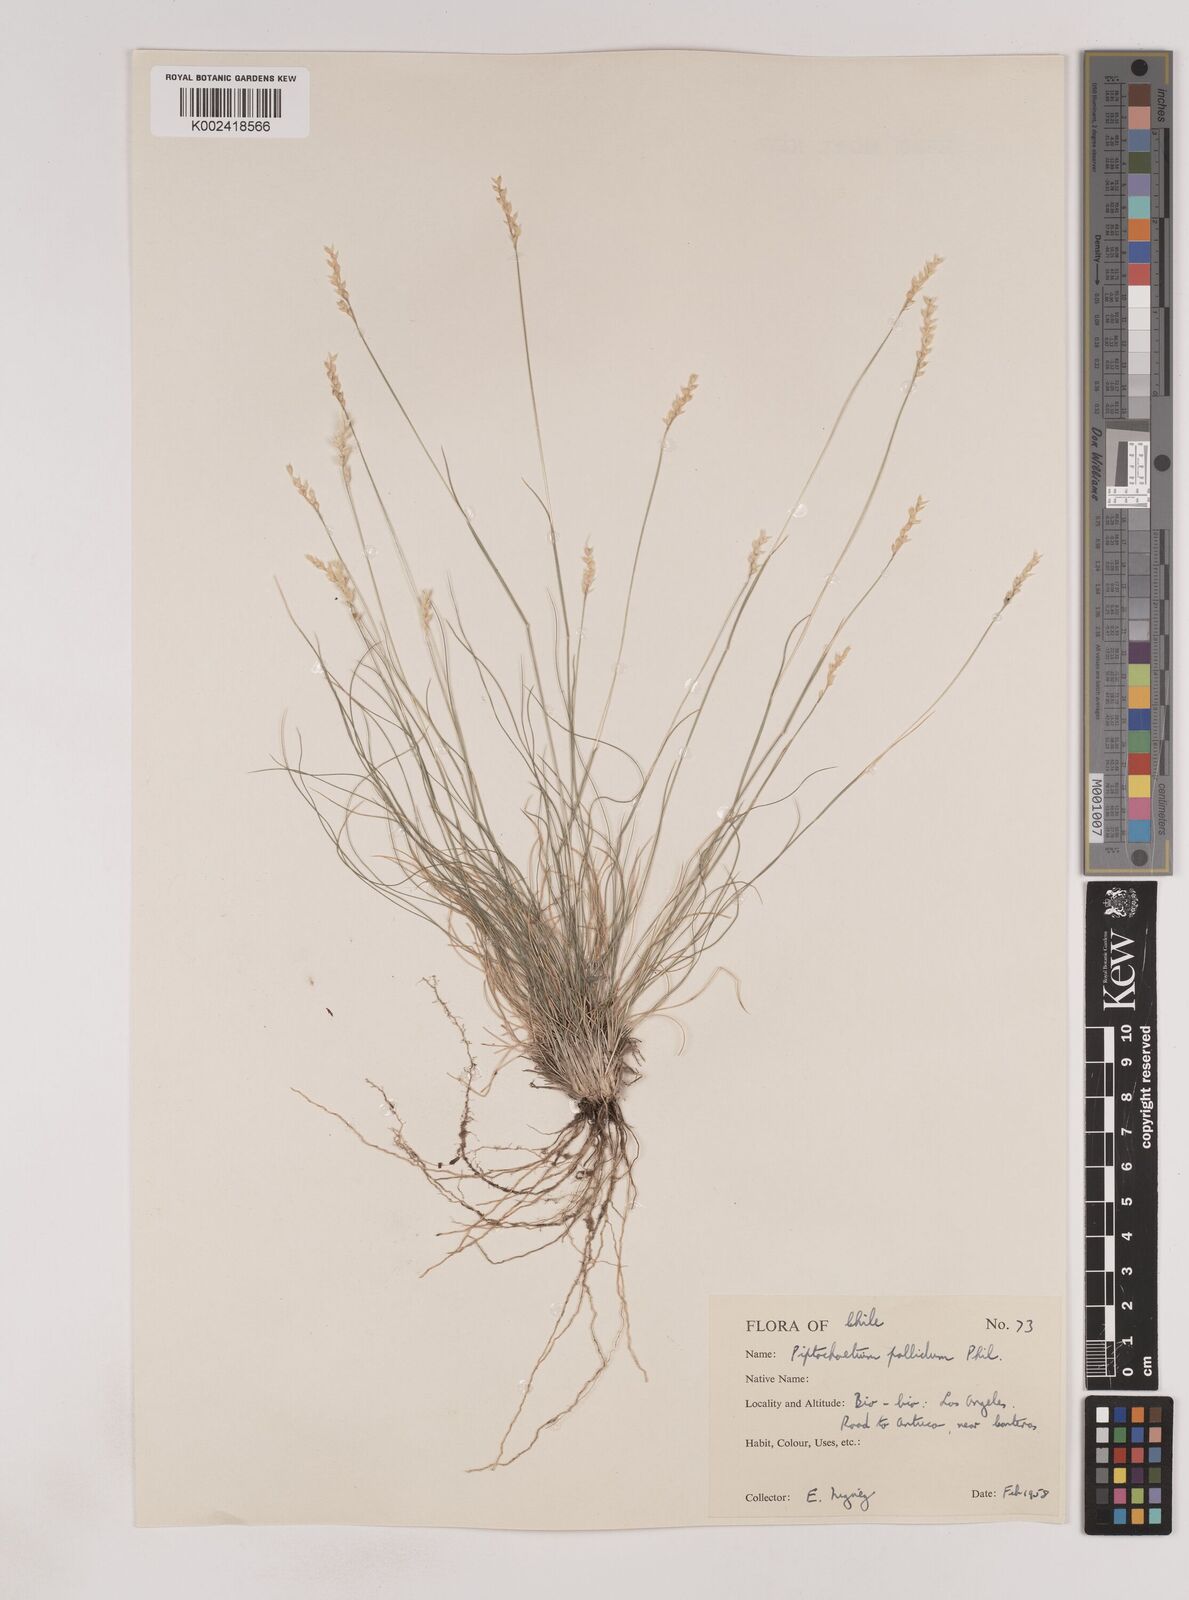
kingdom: Plantae
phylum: Tracheophyta
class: Liliopsida
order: Poales
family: Poaceae
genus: Piptochaetium
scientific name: Piptochaetium montevidense
